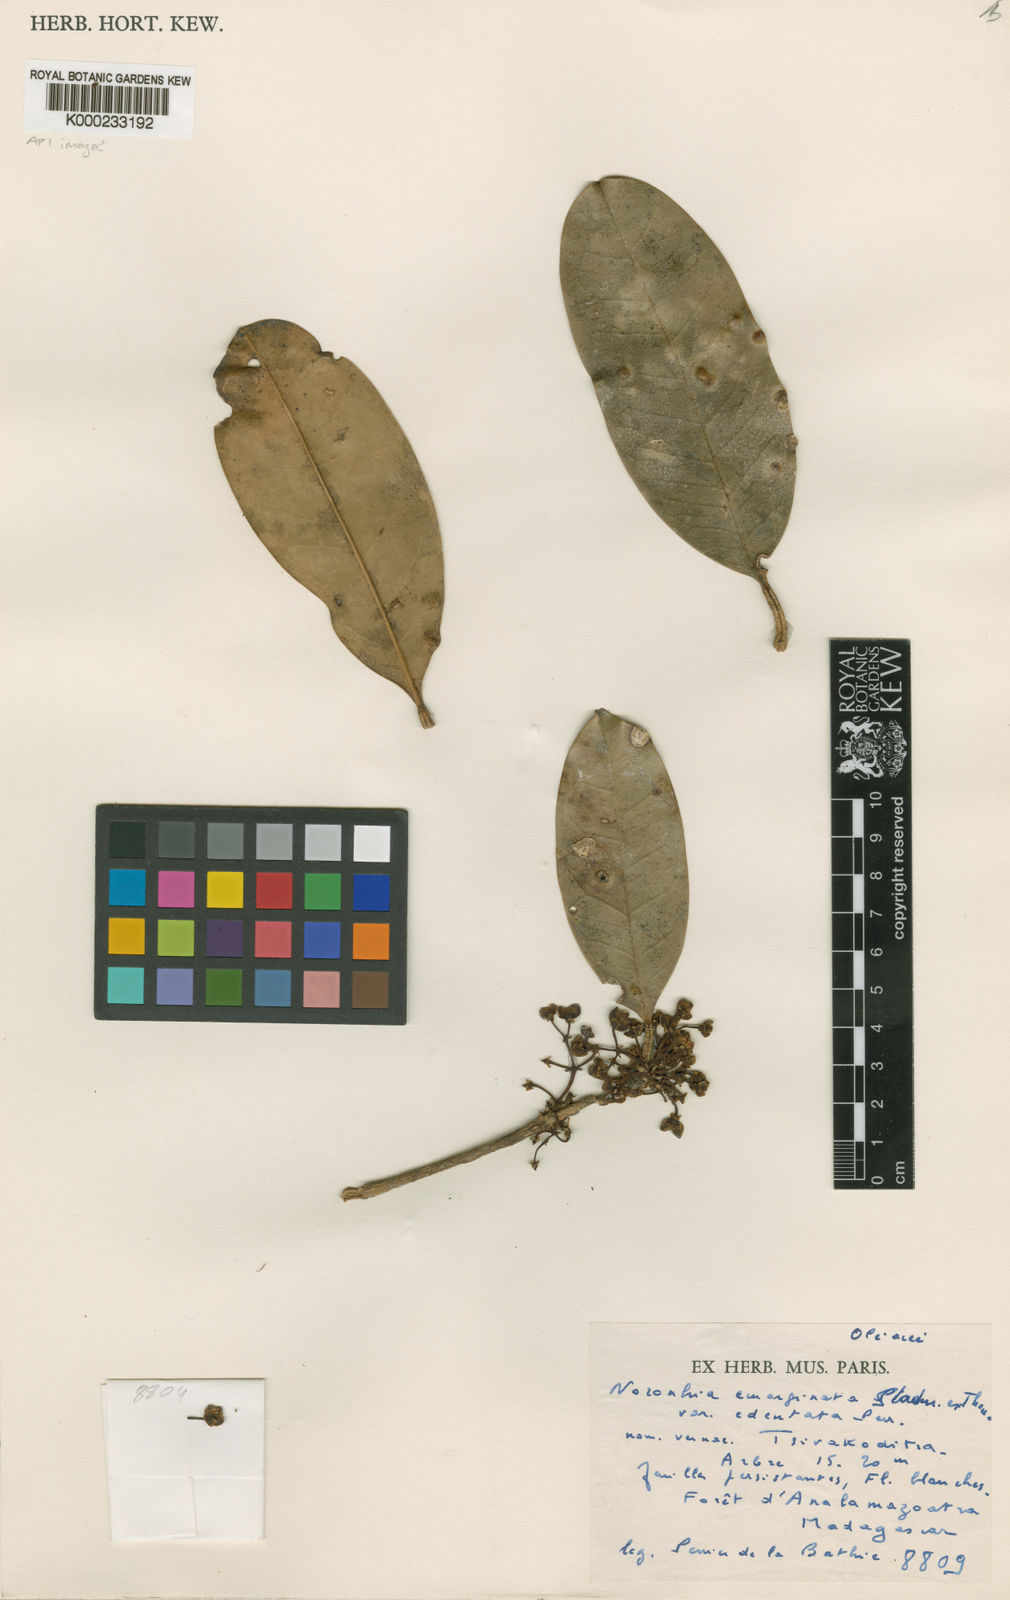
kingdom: Plantae
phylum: Tracheophyta
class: Magnoliopsida
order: Lamiales
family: Oleaceae
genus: Noronhia
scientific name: Noronhia edentata
